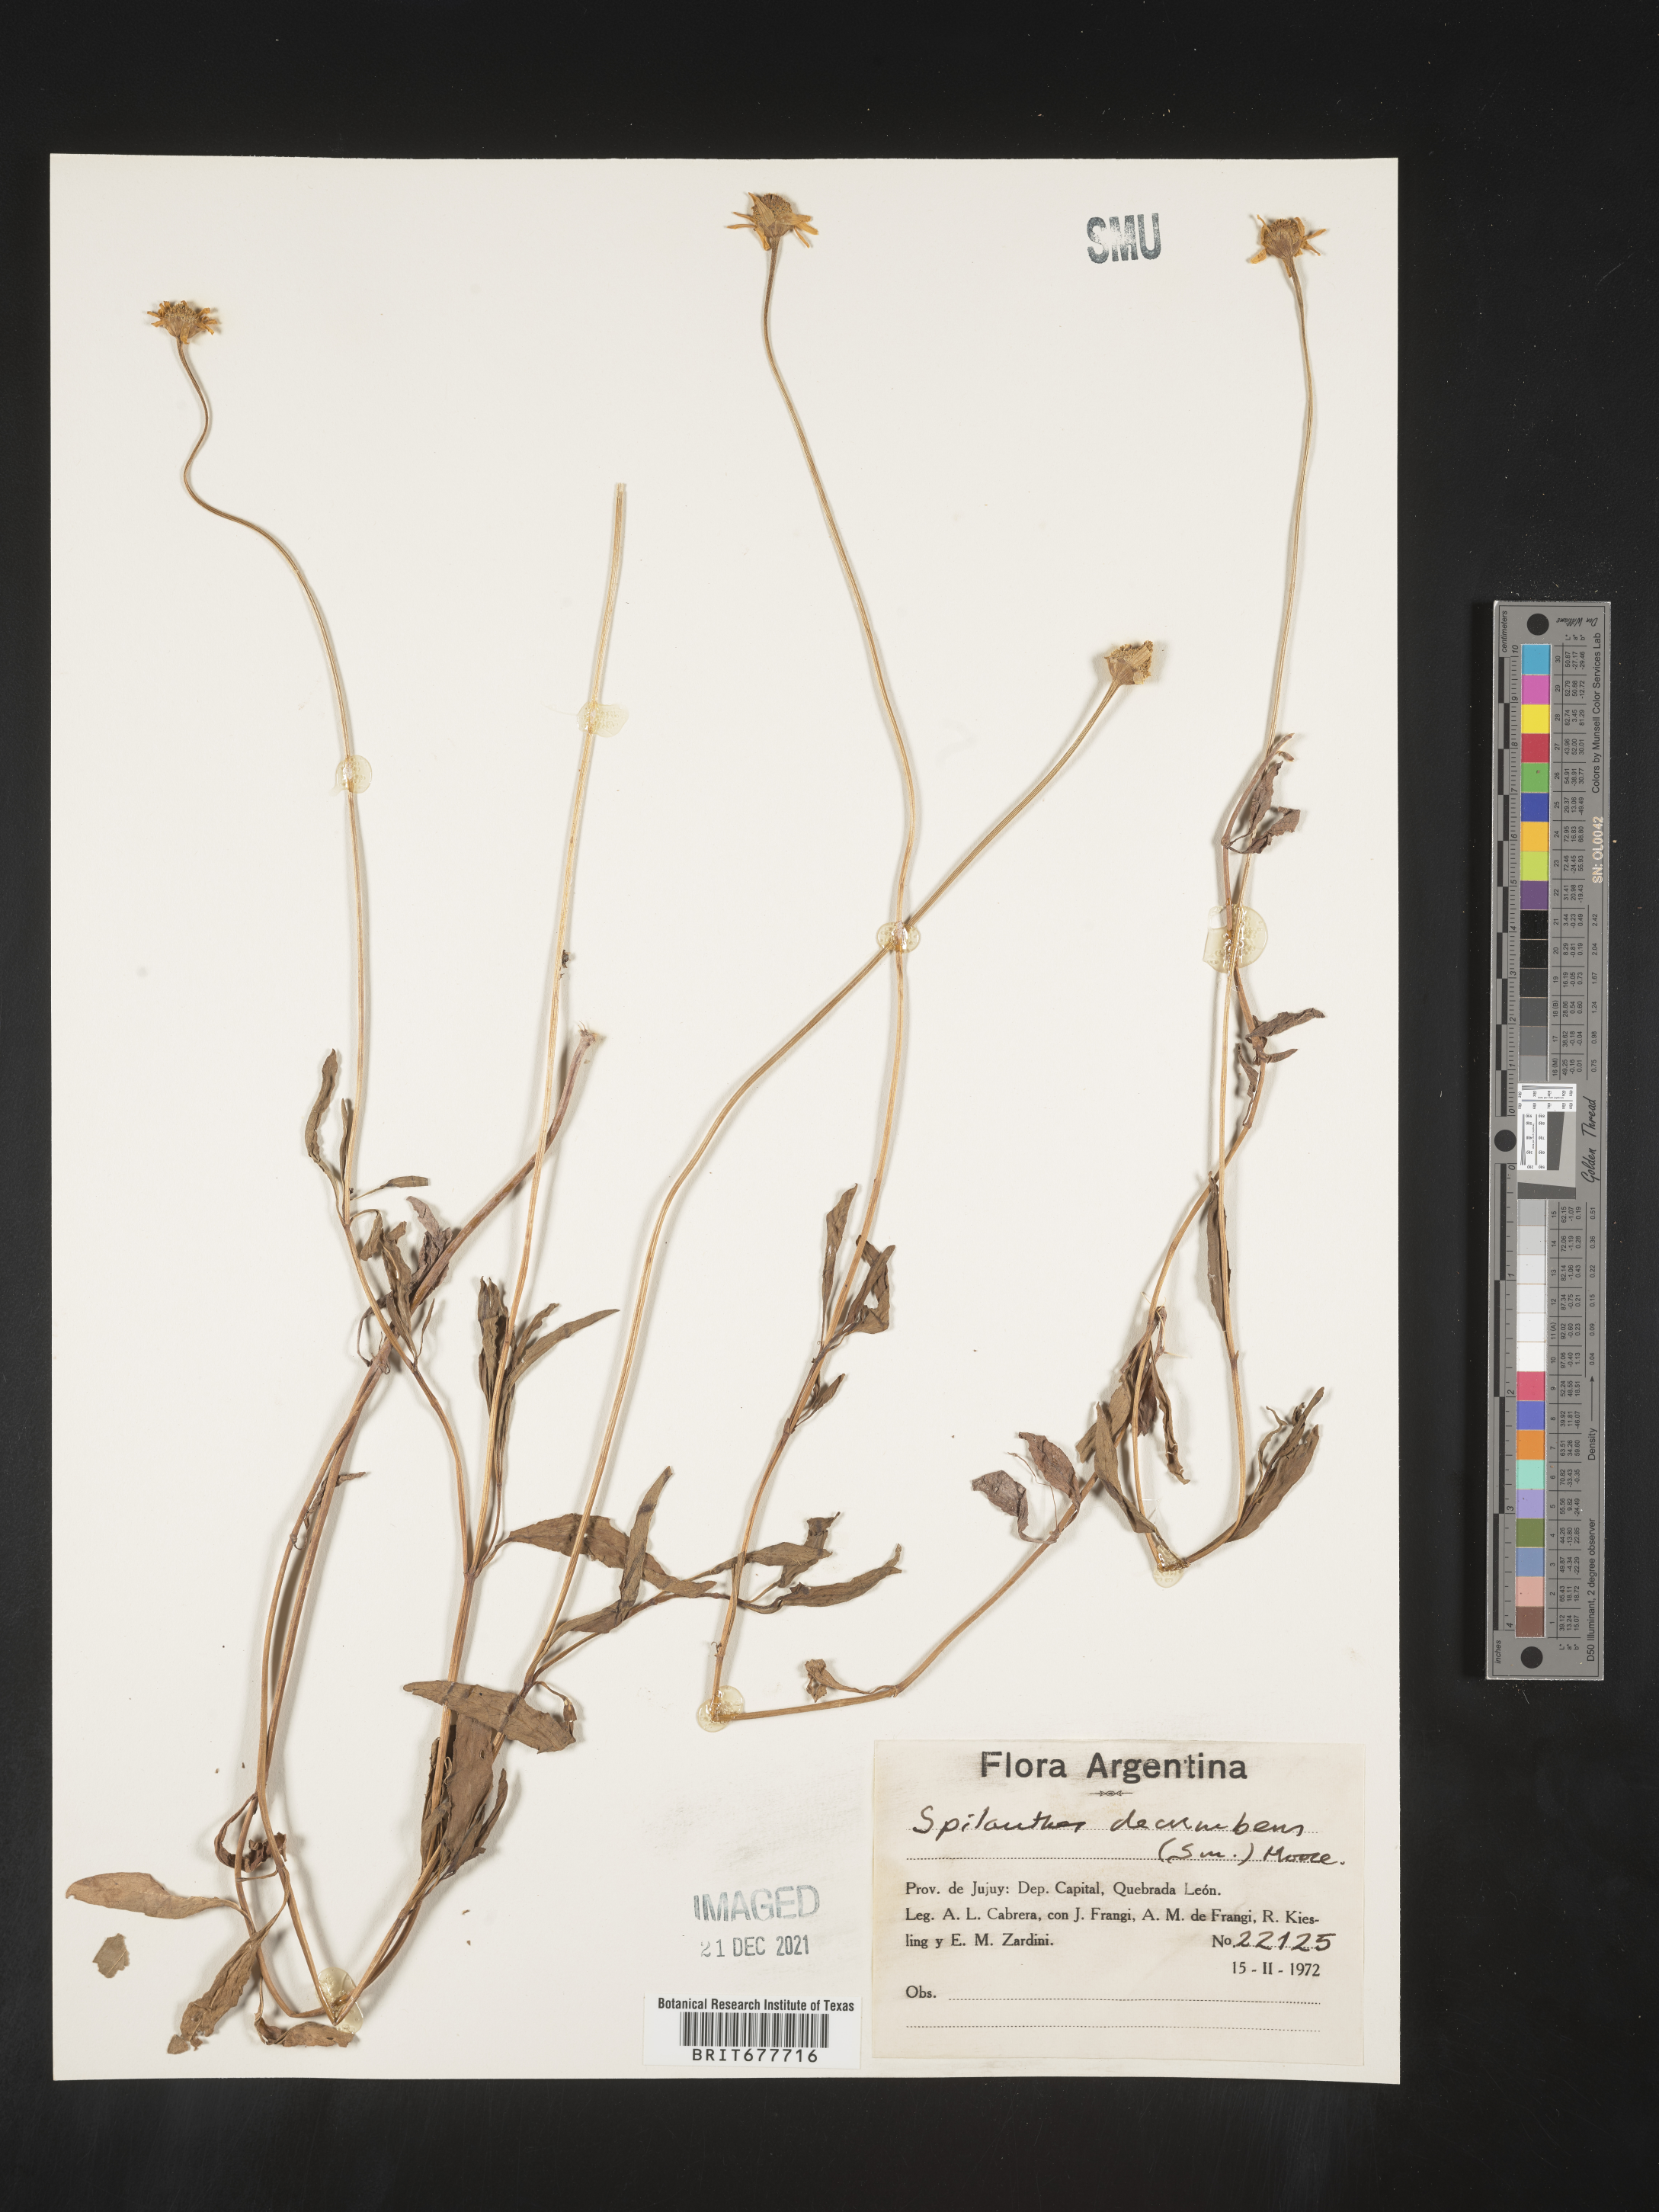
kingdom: Plantae
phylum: Tracheophyta
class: Magnoliopsida
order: Asterales
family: Asteraceae
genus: Spilanthes
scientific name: Spilanthes
